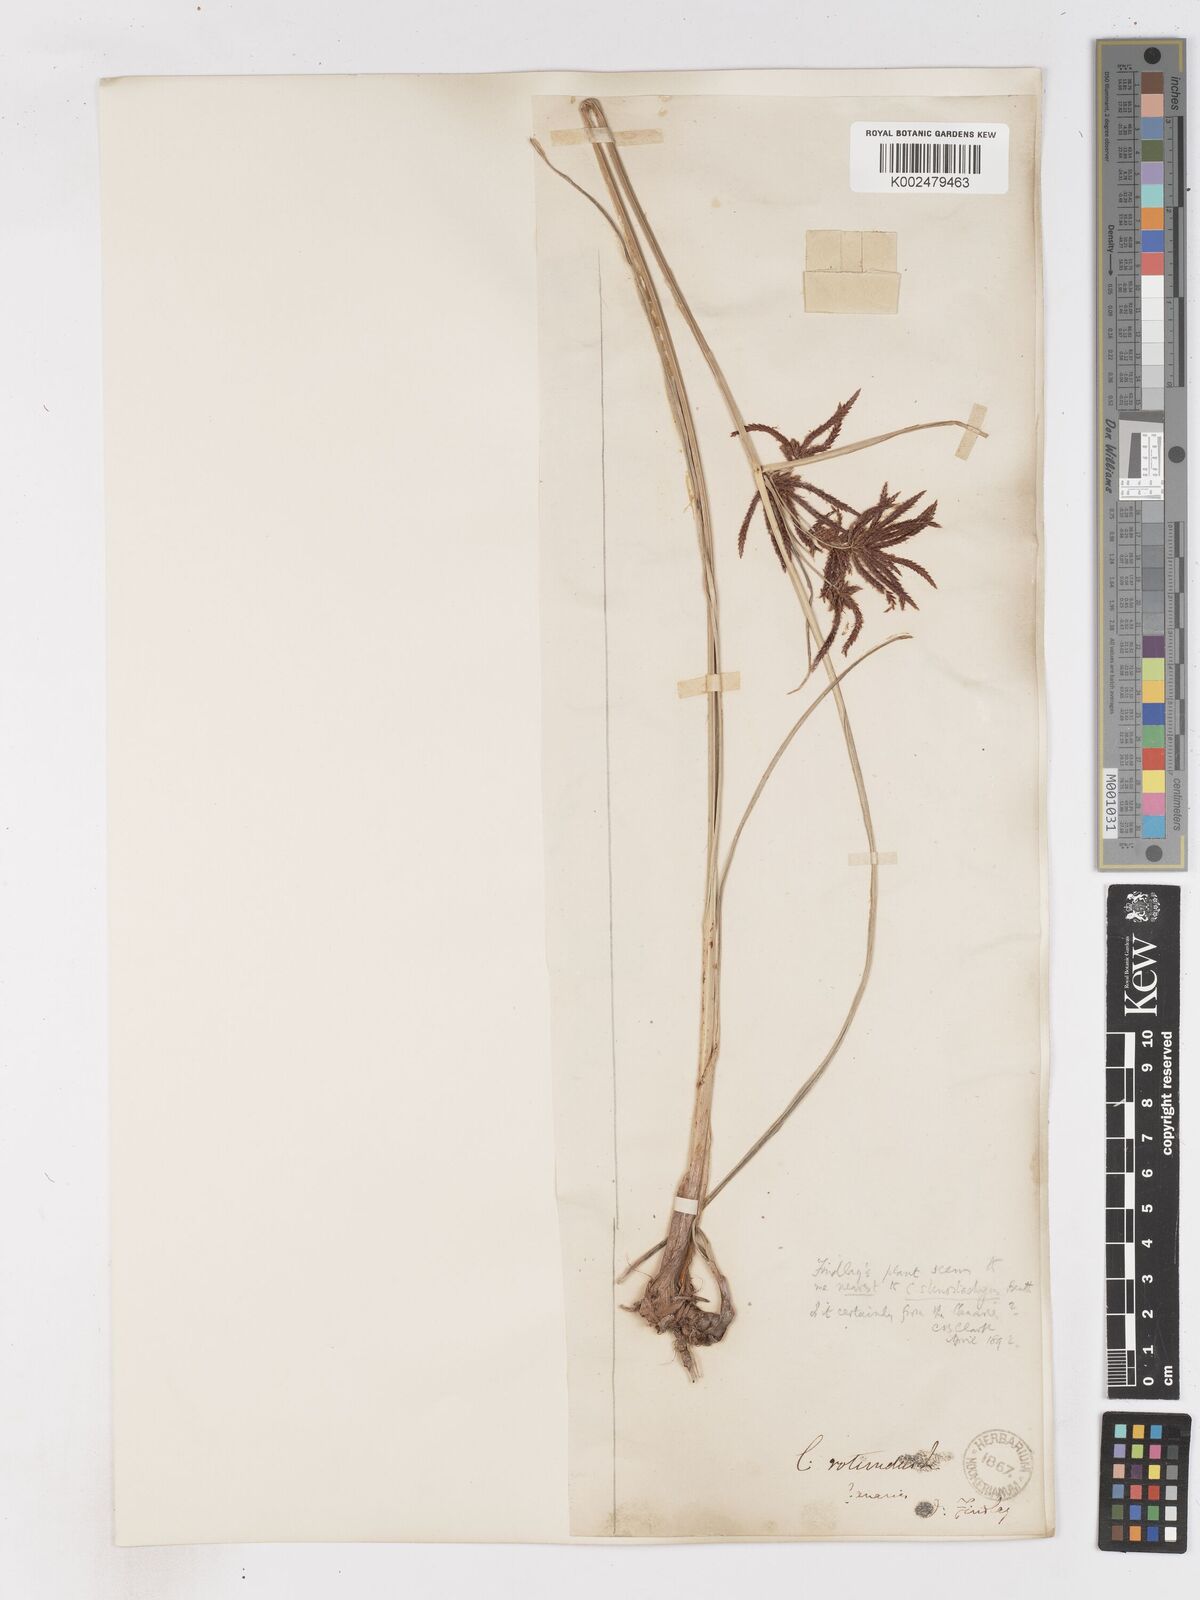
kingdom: Plantae
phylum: Tracheophyta
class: Liliopsida
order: Poales
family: Cyperaceae
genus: Cyperus
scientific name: Cyperus longus
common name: Galingale
